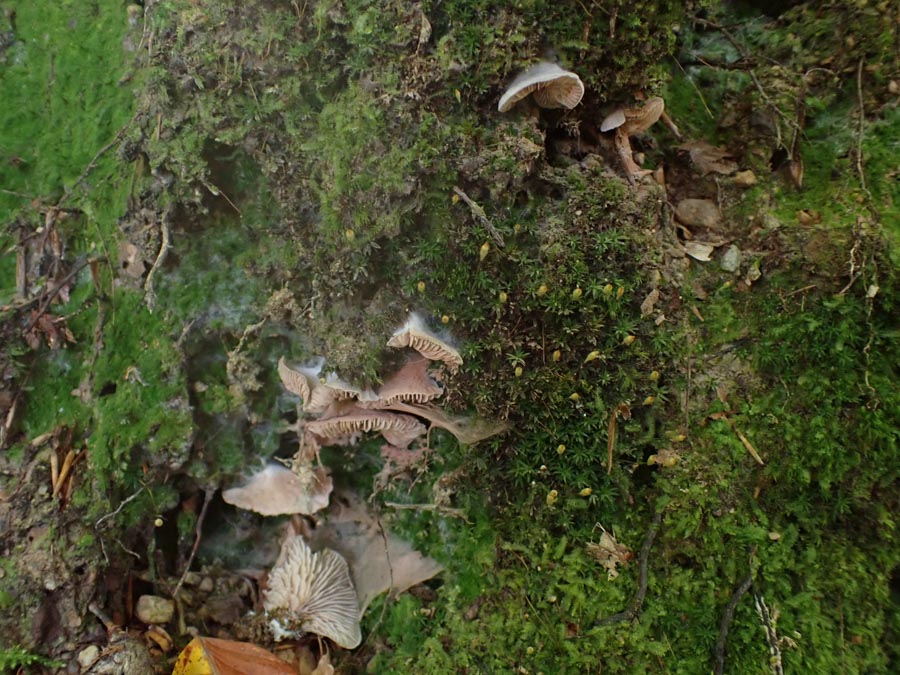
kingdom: Fungi
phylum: Basidiomycota
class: Agaricomycetes
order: Agaricales
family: Entolomataceae
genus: Entoloma
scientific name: Entoloma byssisedum
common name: vifte-rødblad
